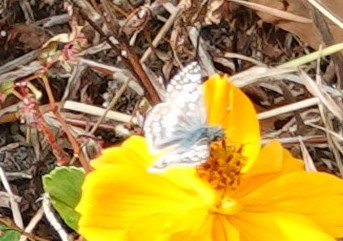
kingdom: Animalia
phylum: Arthropoda
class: Insecta
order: Lepidoptera
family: Hesperiidae
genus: Pyrgus
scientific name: Pyrgus communis
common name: White Checkered-Skipper
